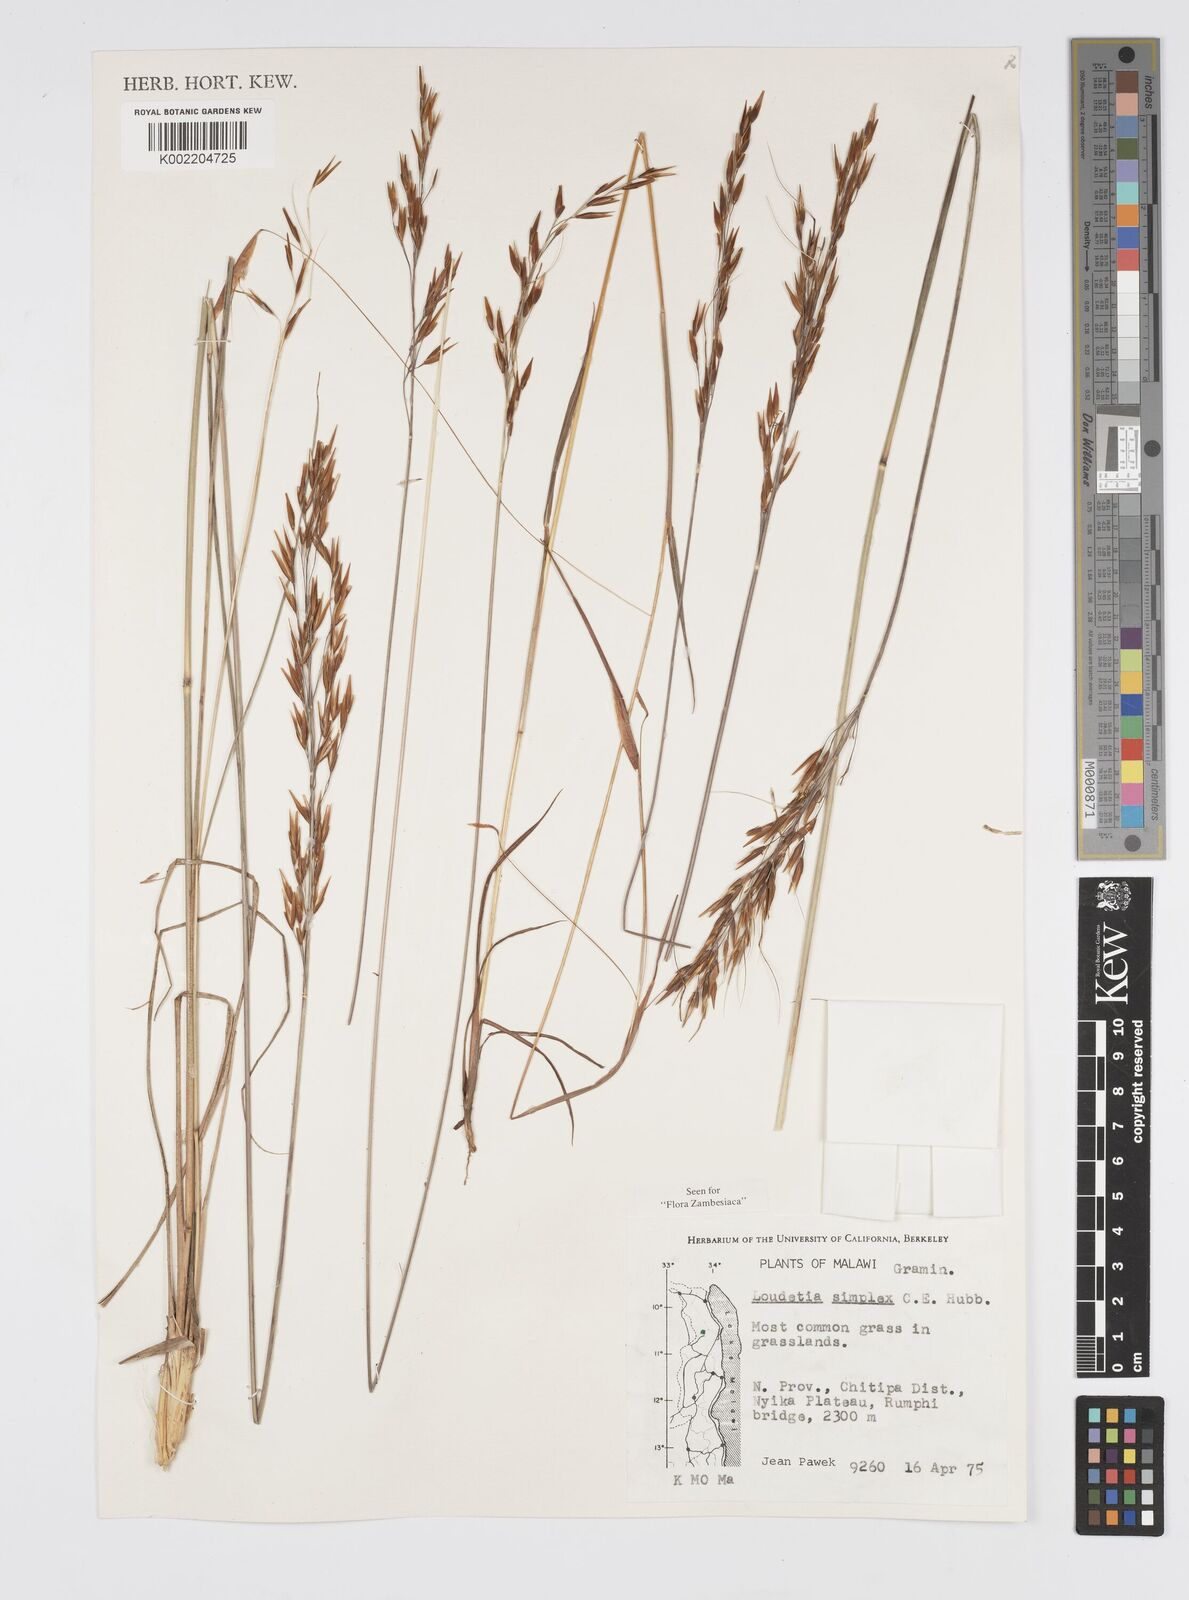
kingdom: Plantae
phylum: Tracheophyta
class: Liliopsida
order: Poales
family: Poaceae
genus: Loudetia
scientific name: Loudetia simplex
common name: Common russet grass
